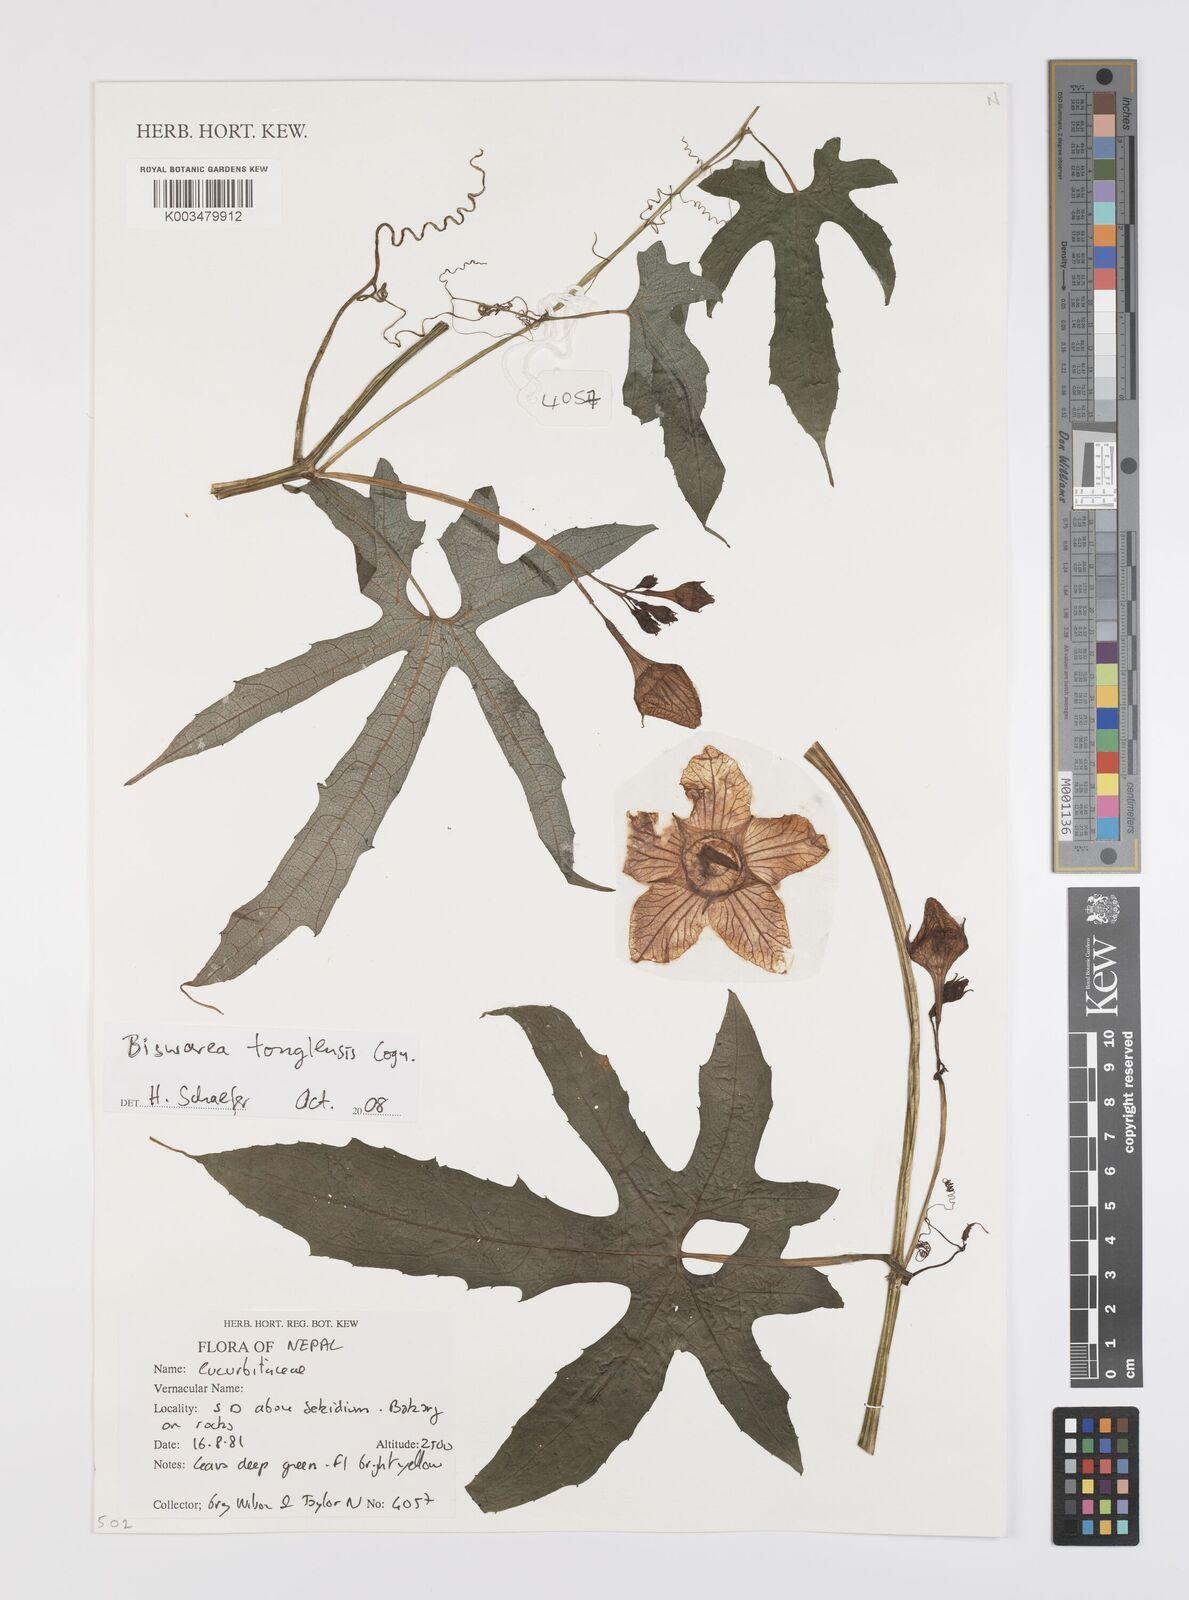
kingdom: Plantae
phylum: Tracheophyta
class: Magnoliopsida
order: Cucurbitales
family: Cucurbitaceae
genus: Benincasa
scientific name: Benincasa
